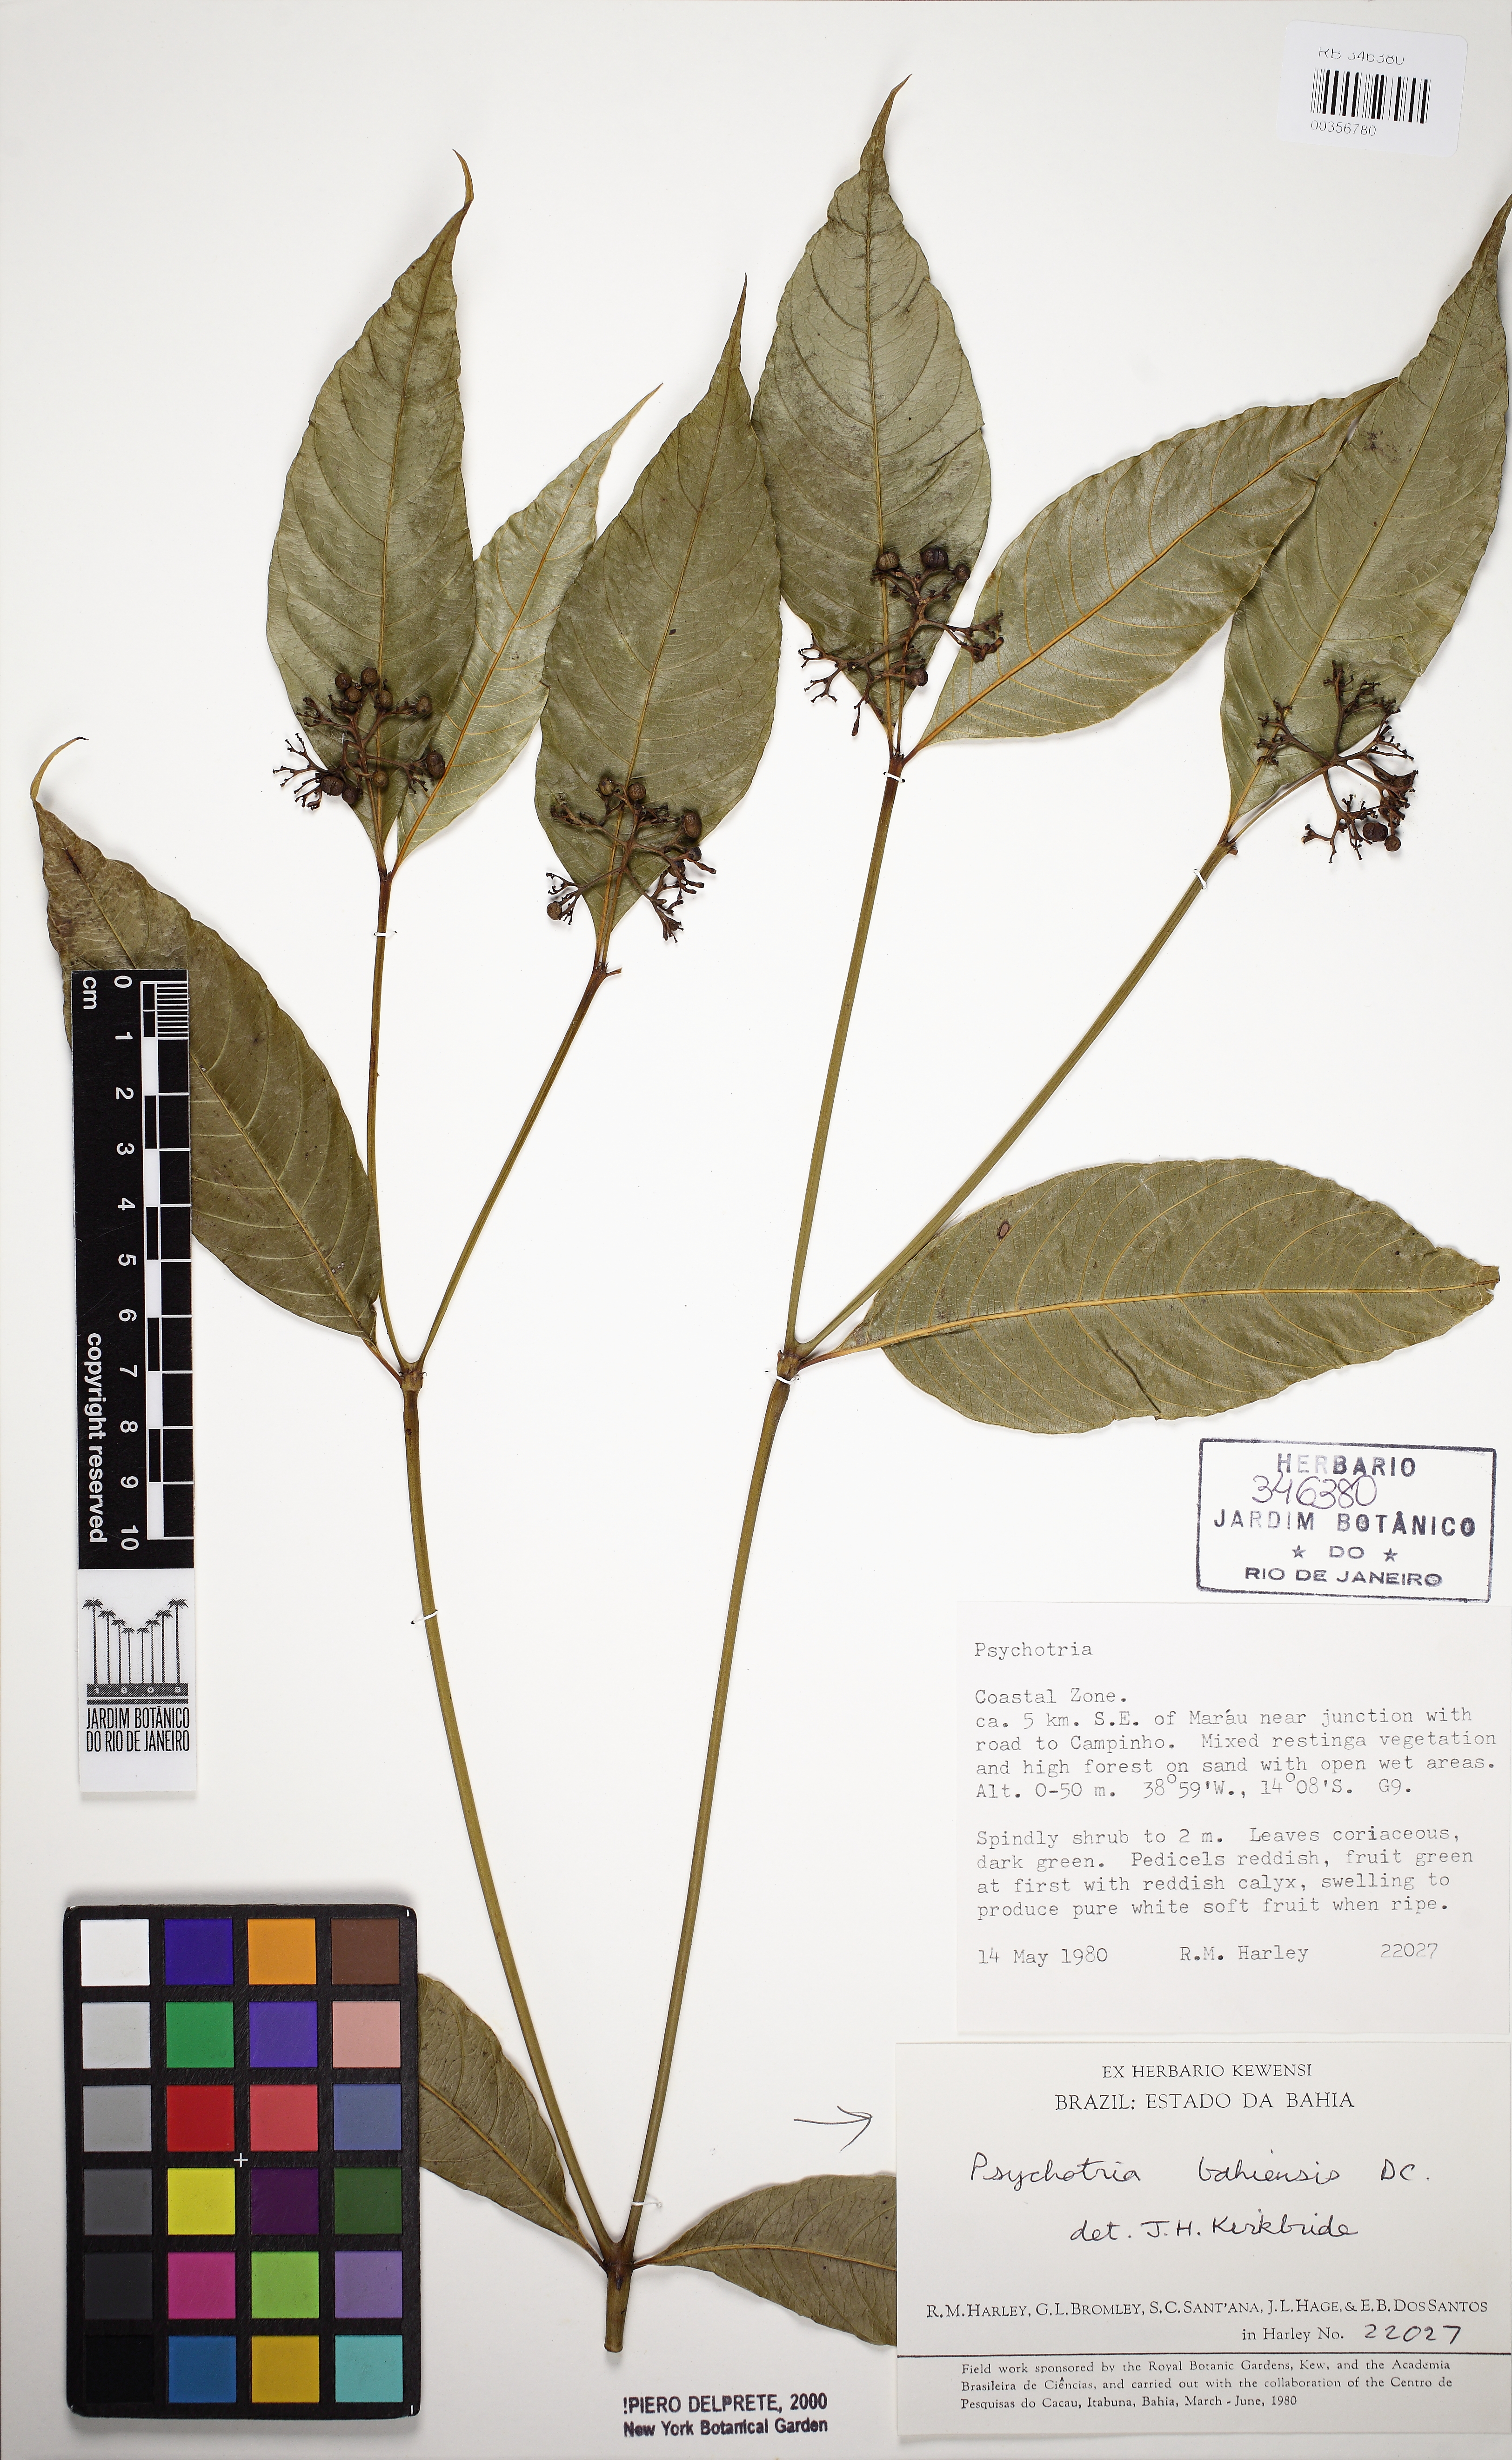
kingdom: Plantae
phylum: Tracheophyta
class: Magnoliopsida
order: Gentianales
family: Rubiaceae
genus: Psychotria
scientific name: Psychotria bahiensis
